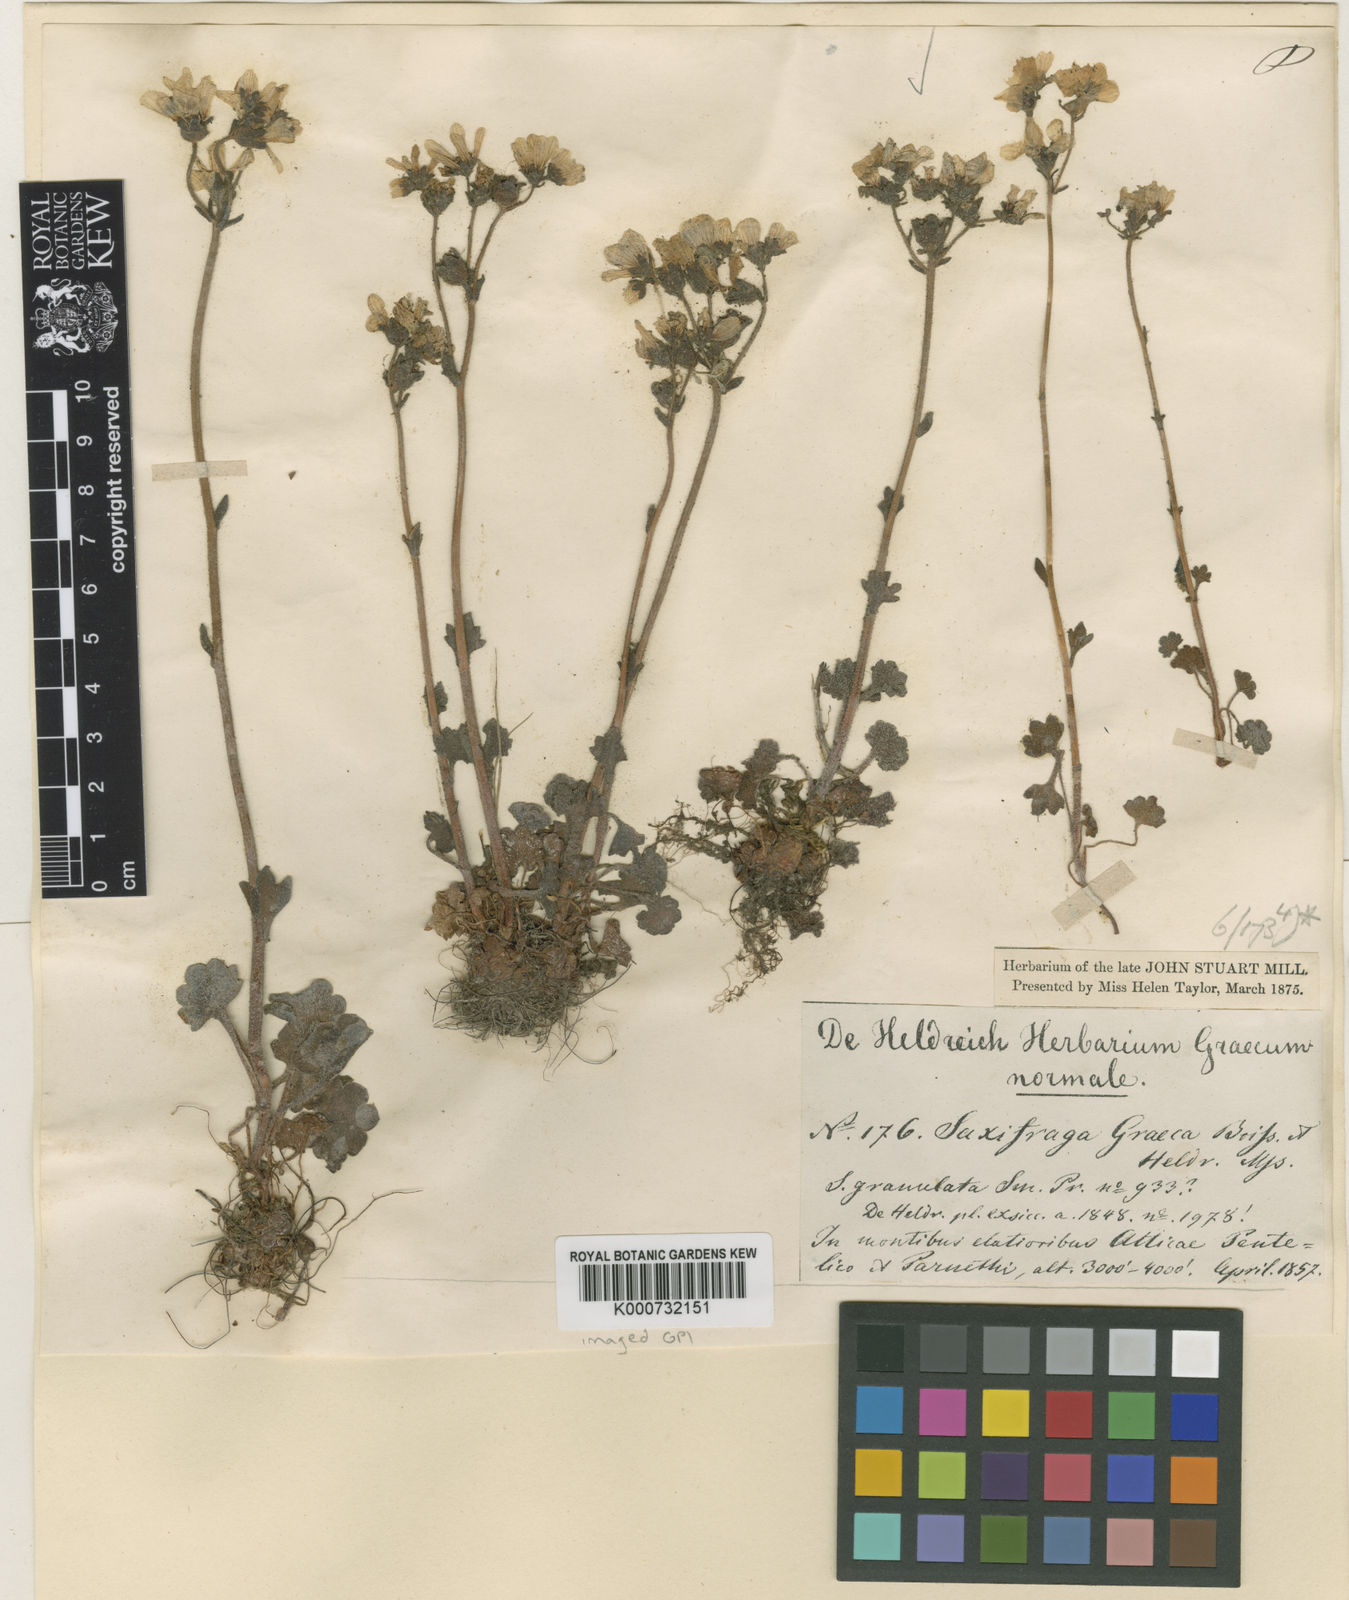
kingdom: Plantae
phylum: Tracheophyta
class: Magnoliopsida
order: Saxifragales
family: Saxifragaceae
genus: Saxifraga
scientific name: Saxifraga carpetana
